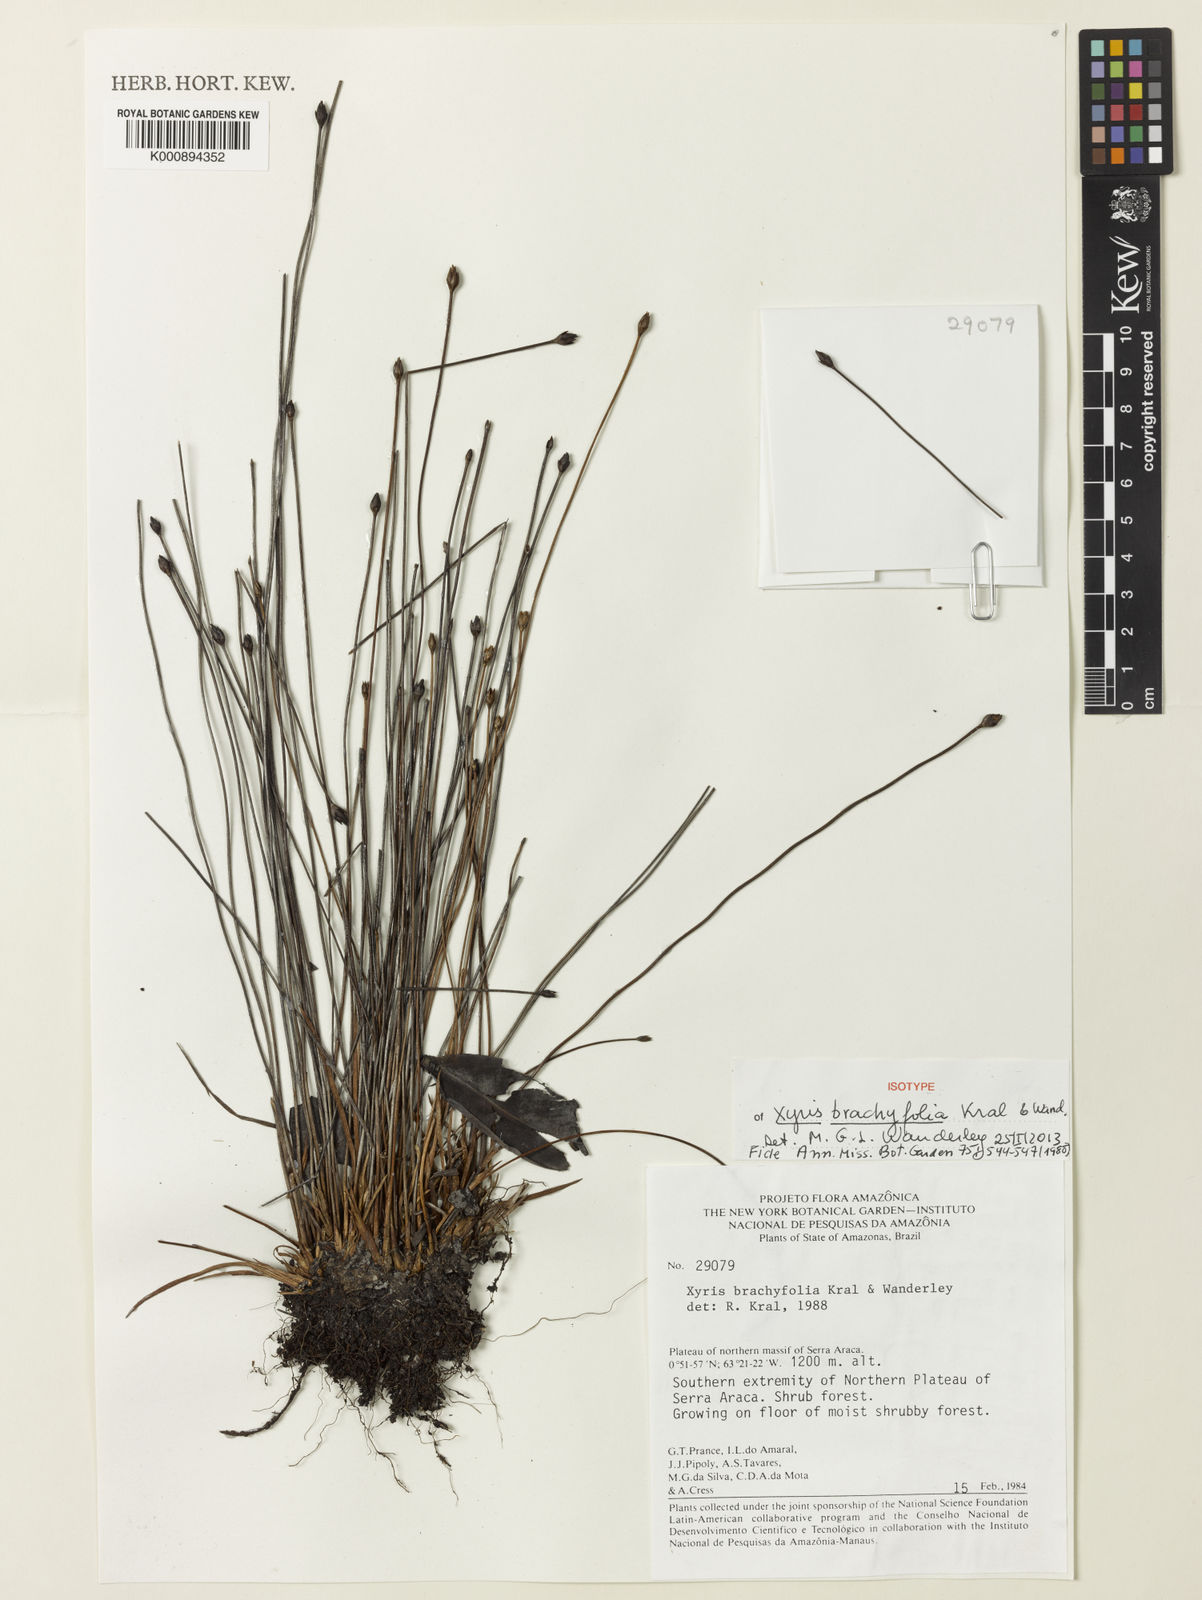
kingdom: Plantae
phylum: Tracheophyta
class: Liliopsida
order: Poales
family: Xyridaceae
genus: Xyris
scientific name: Xyris brachyfolia
